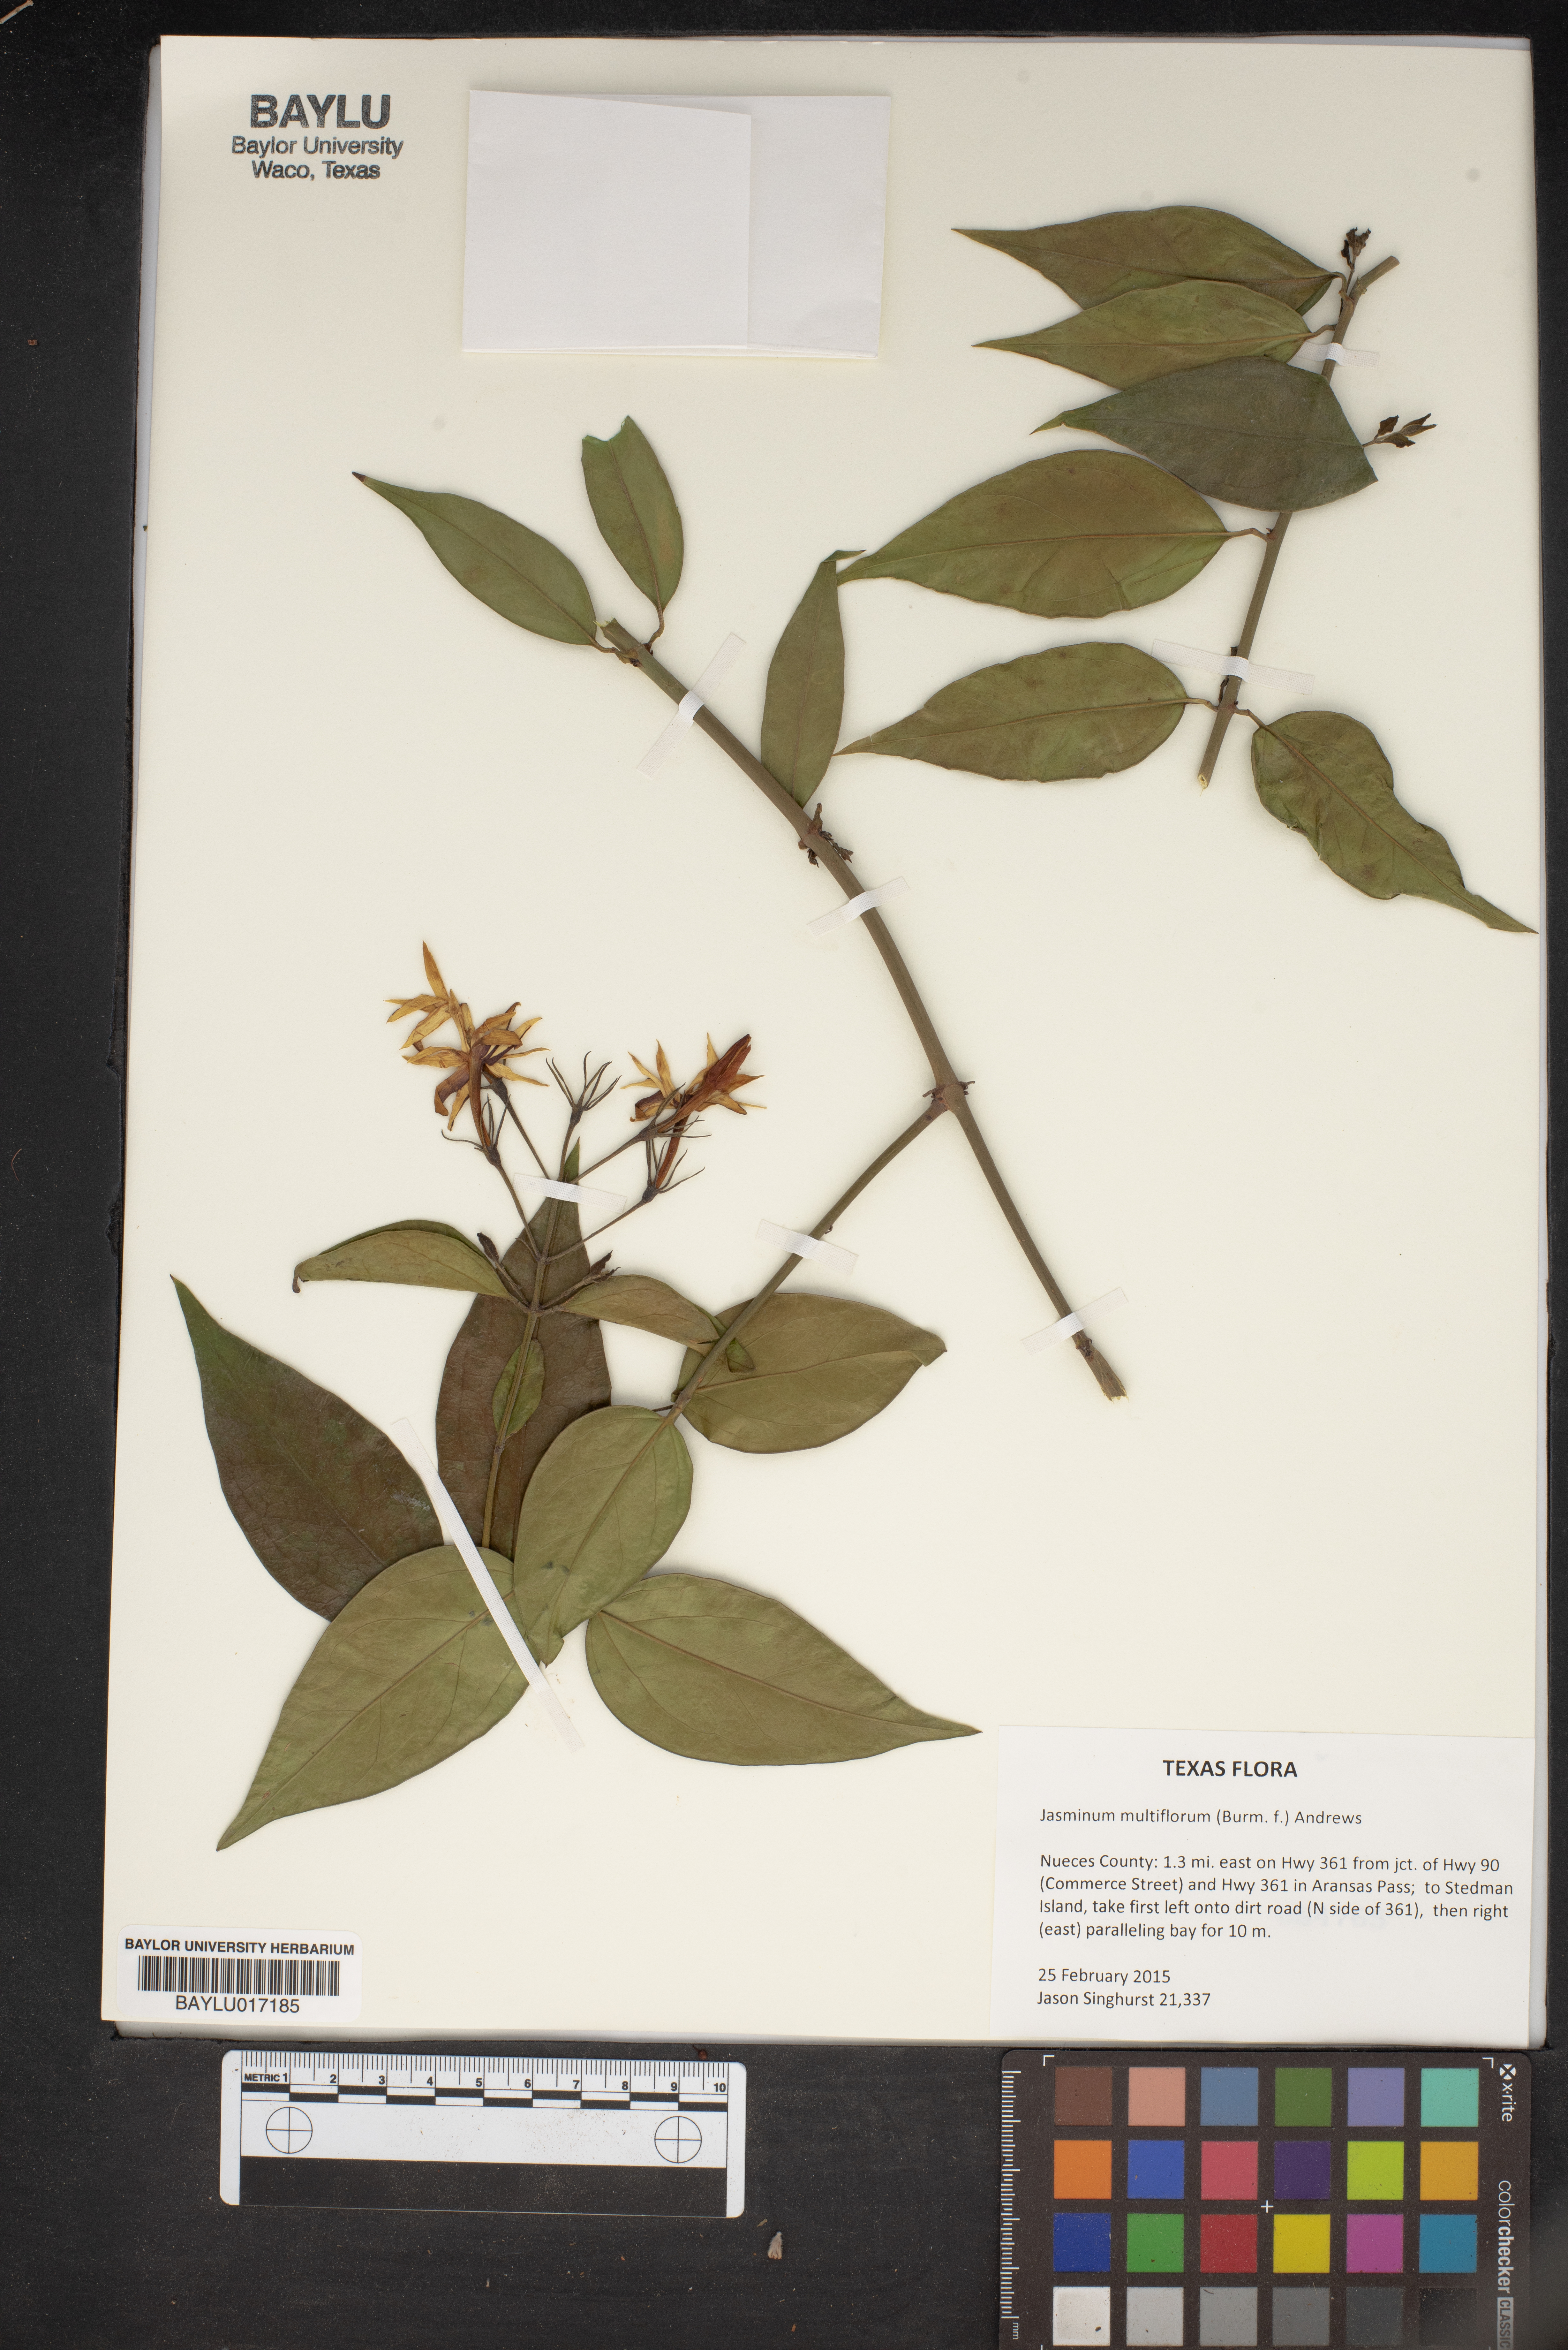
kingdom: Plantae
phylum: Tracheophyta
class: Magnoliopsida
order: Lamiales
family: Oleaceae
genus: Jasminum
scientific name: Jasminum multiflorum
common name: Star jasmine
